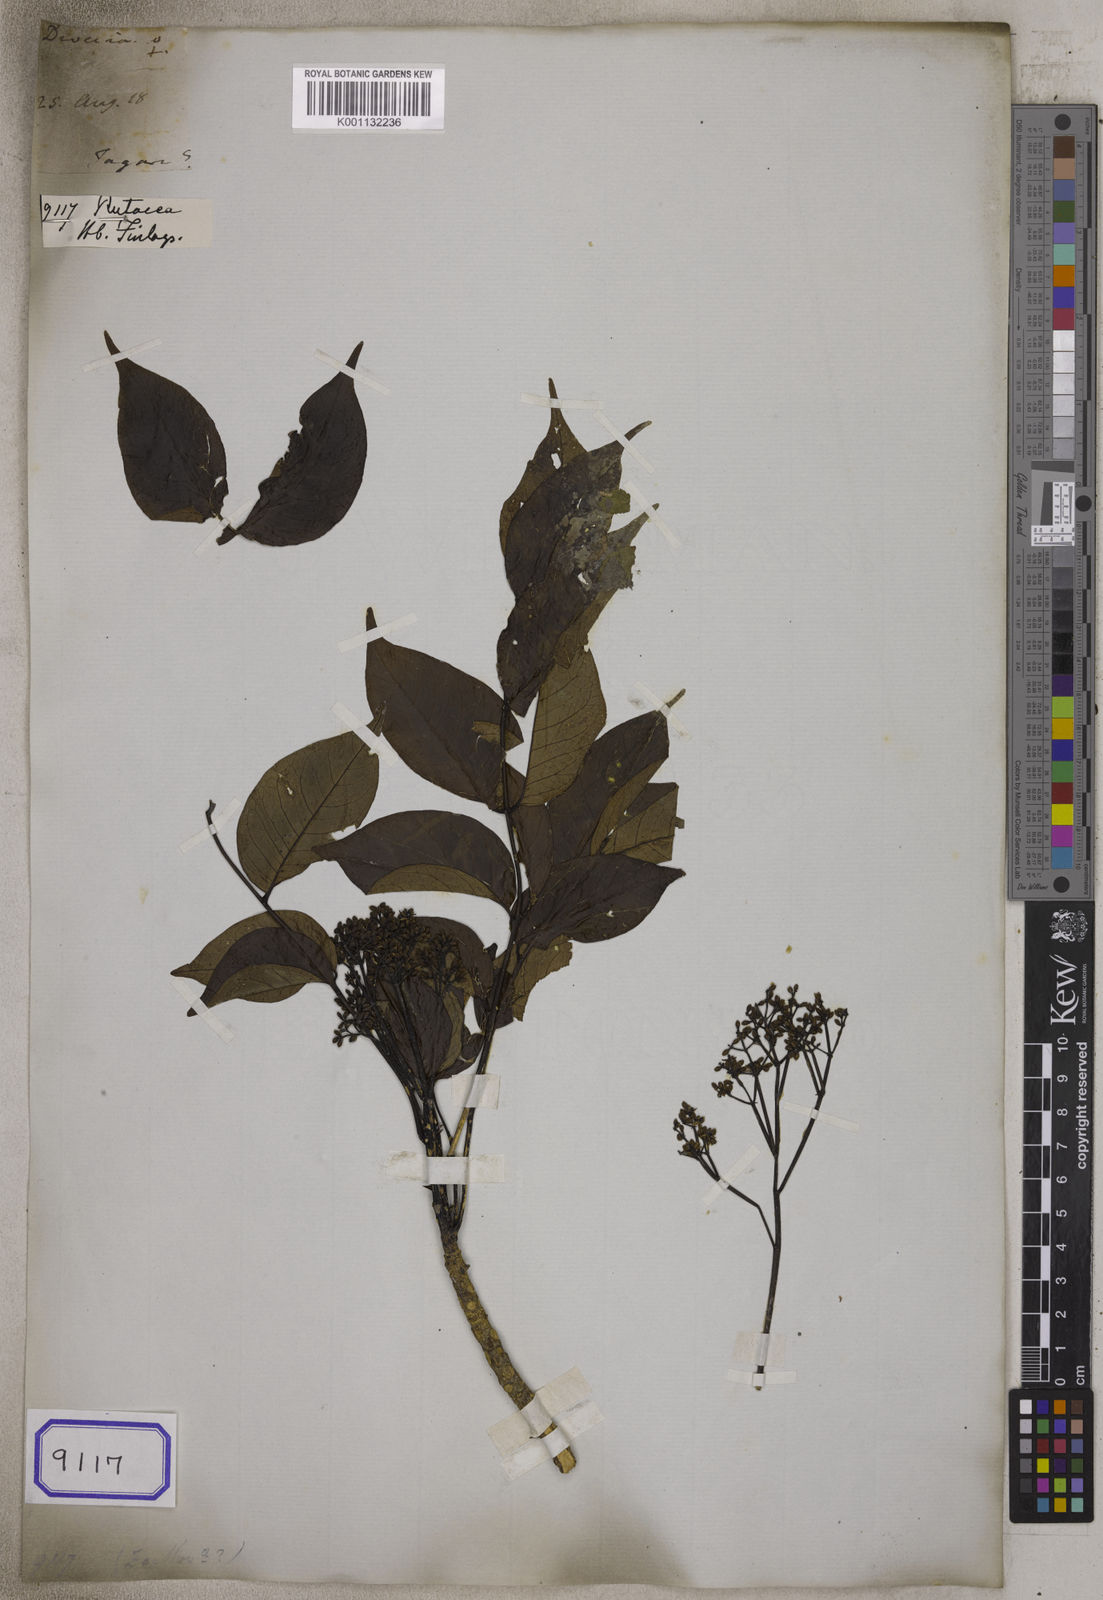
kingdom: Plantae
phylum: Tracheophyta
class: Magnoliopsida
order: Sapindales
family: Rutaceae
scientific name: Rutaceae
